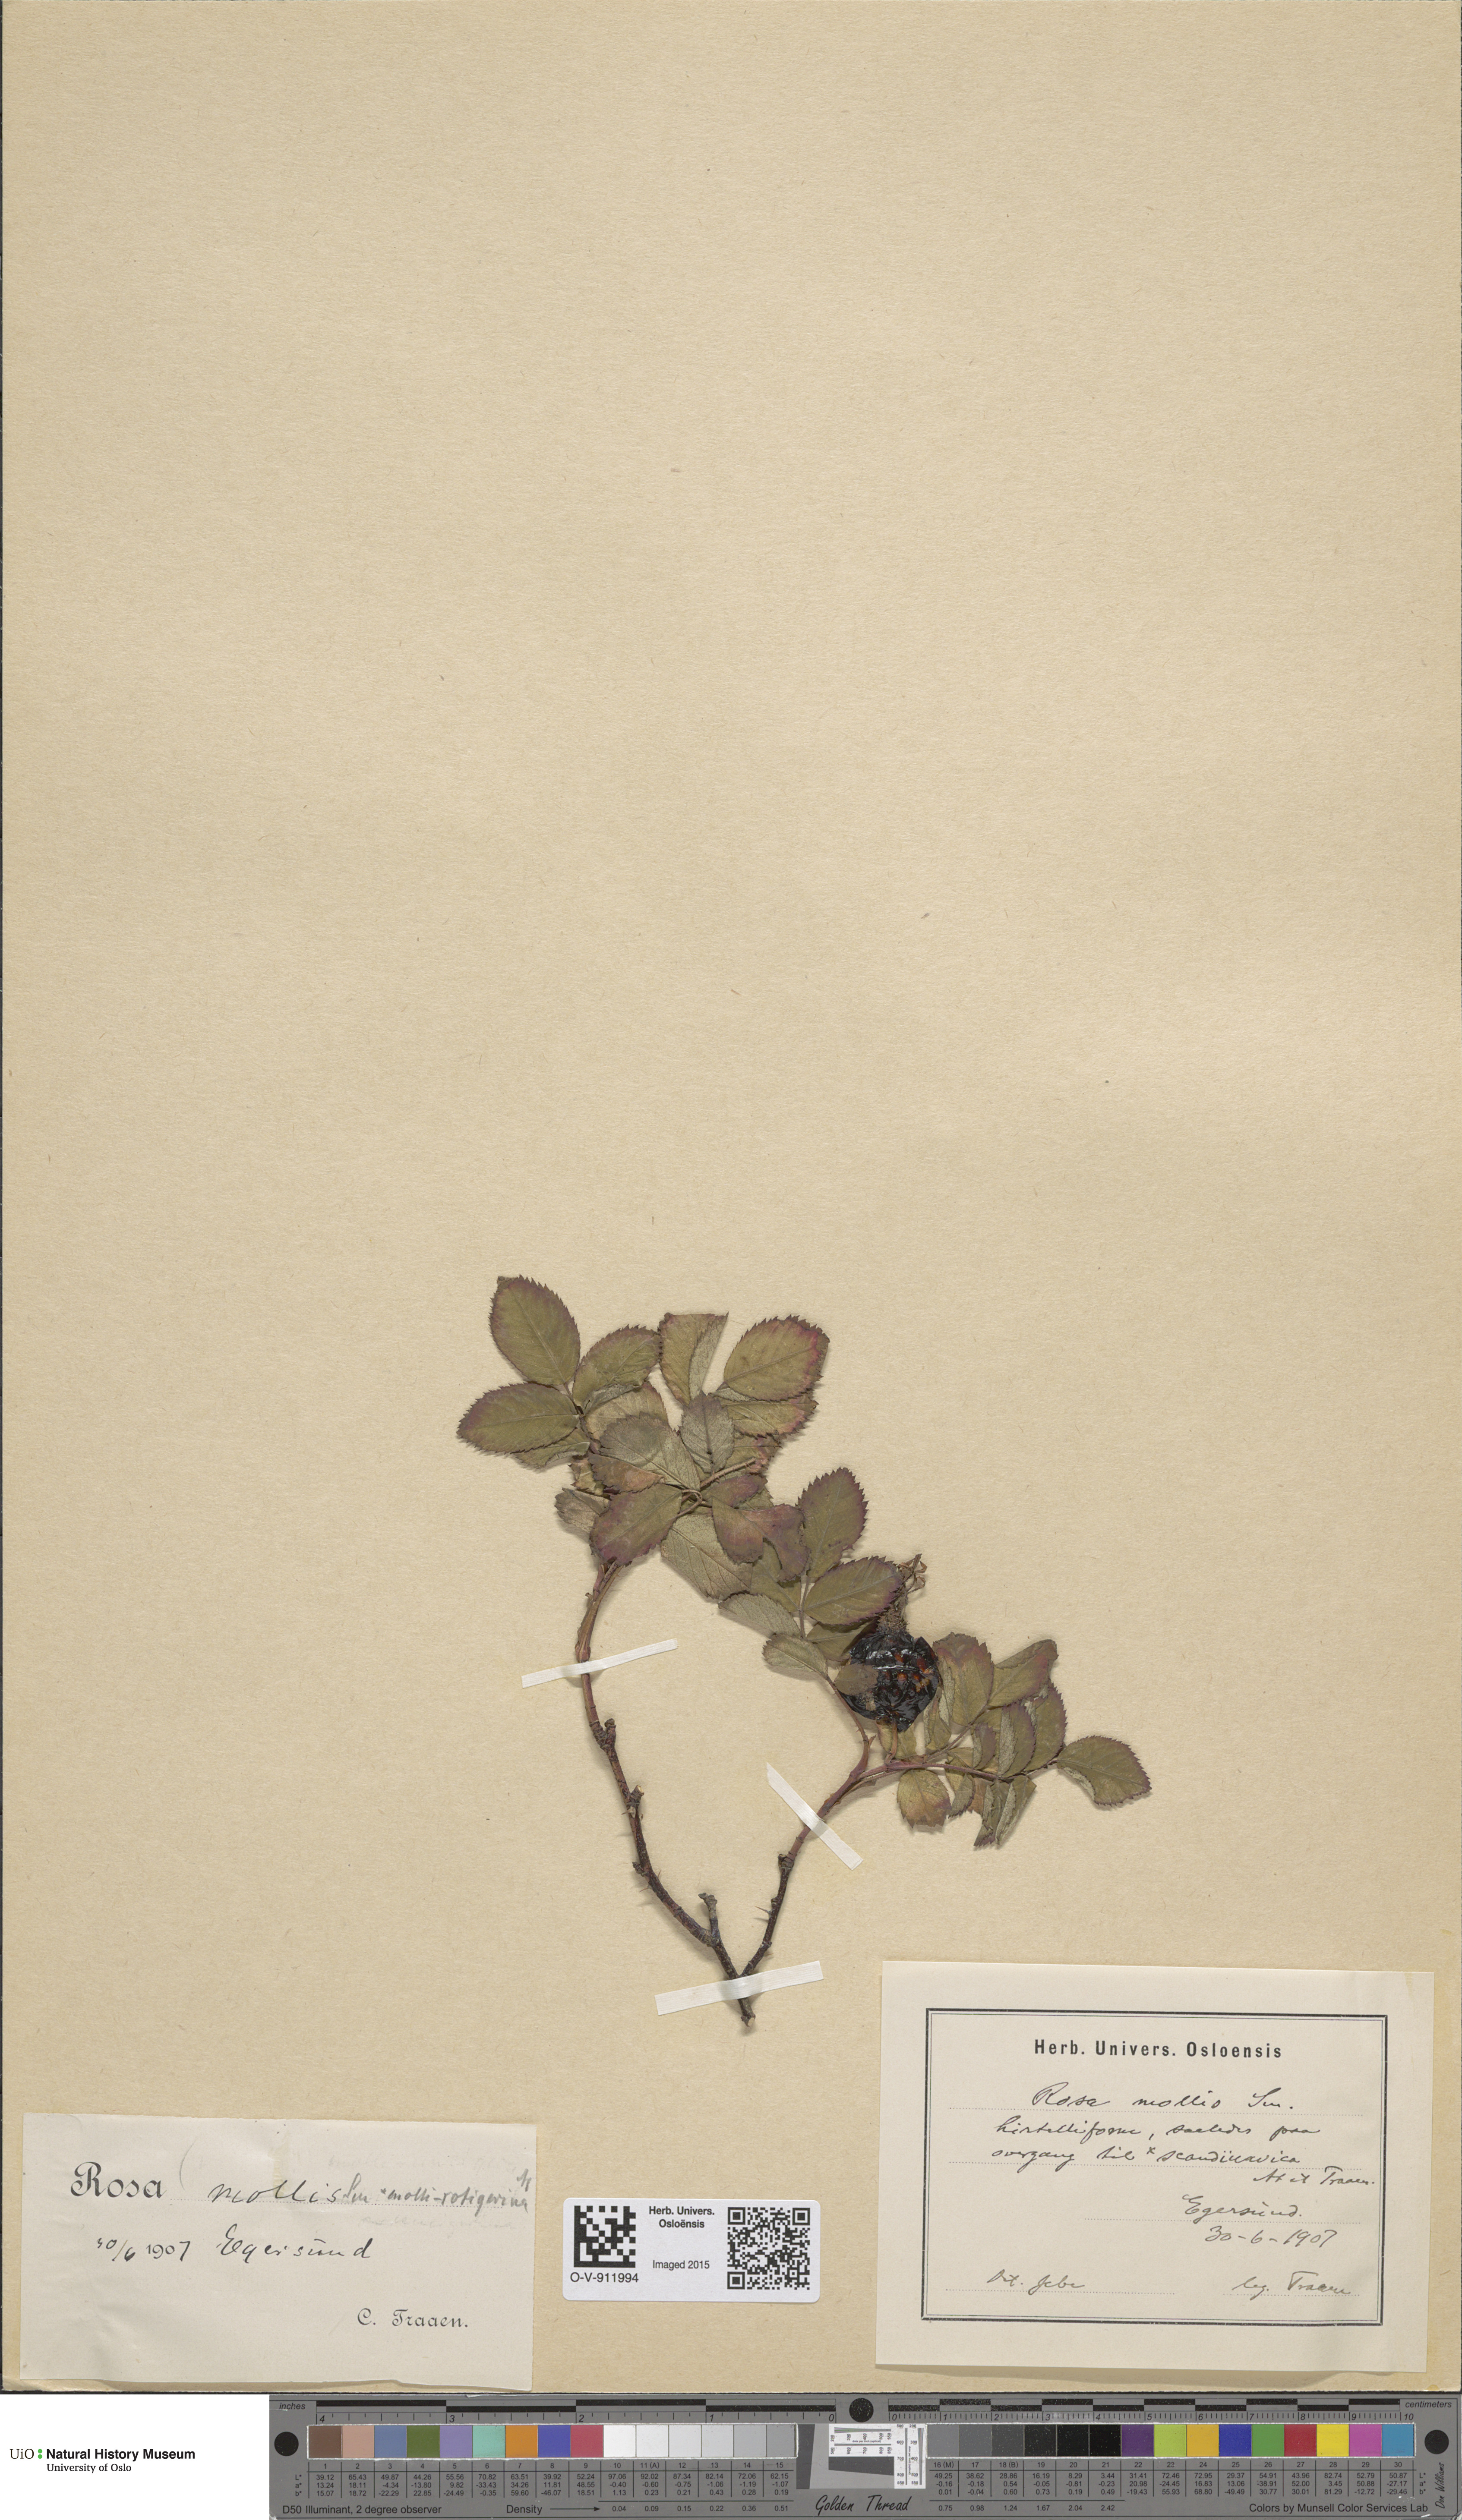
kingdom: Plantae
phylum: Tracheophyta
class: Magnoliopsida
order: Rosales
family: Rosaceae
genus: Rosa
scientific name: Rosa mollis
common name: Rose
